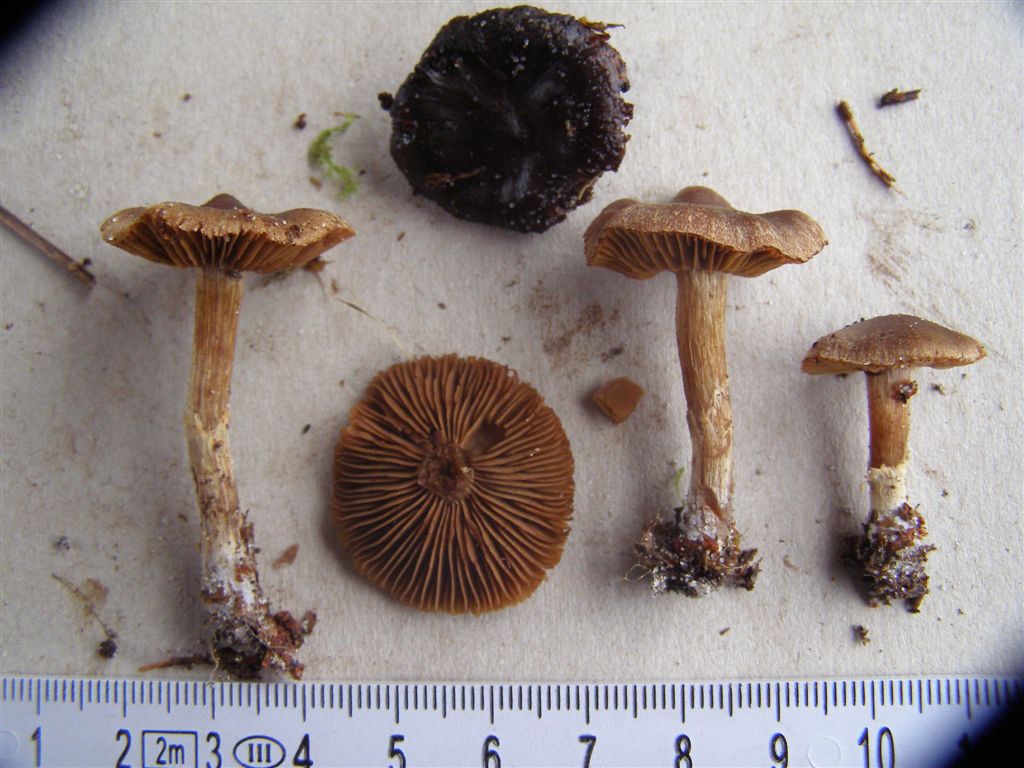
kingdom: Fungi
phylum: Basidiomycota
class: Agaricomycetes
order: Agaricales
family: Cortinariaceae
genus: Cortinarius
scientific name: Cortinarius fusisporus
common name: brunfnugget slørhat
